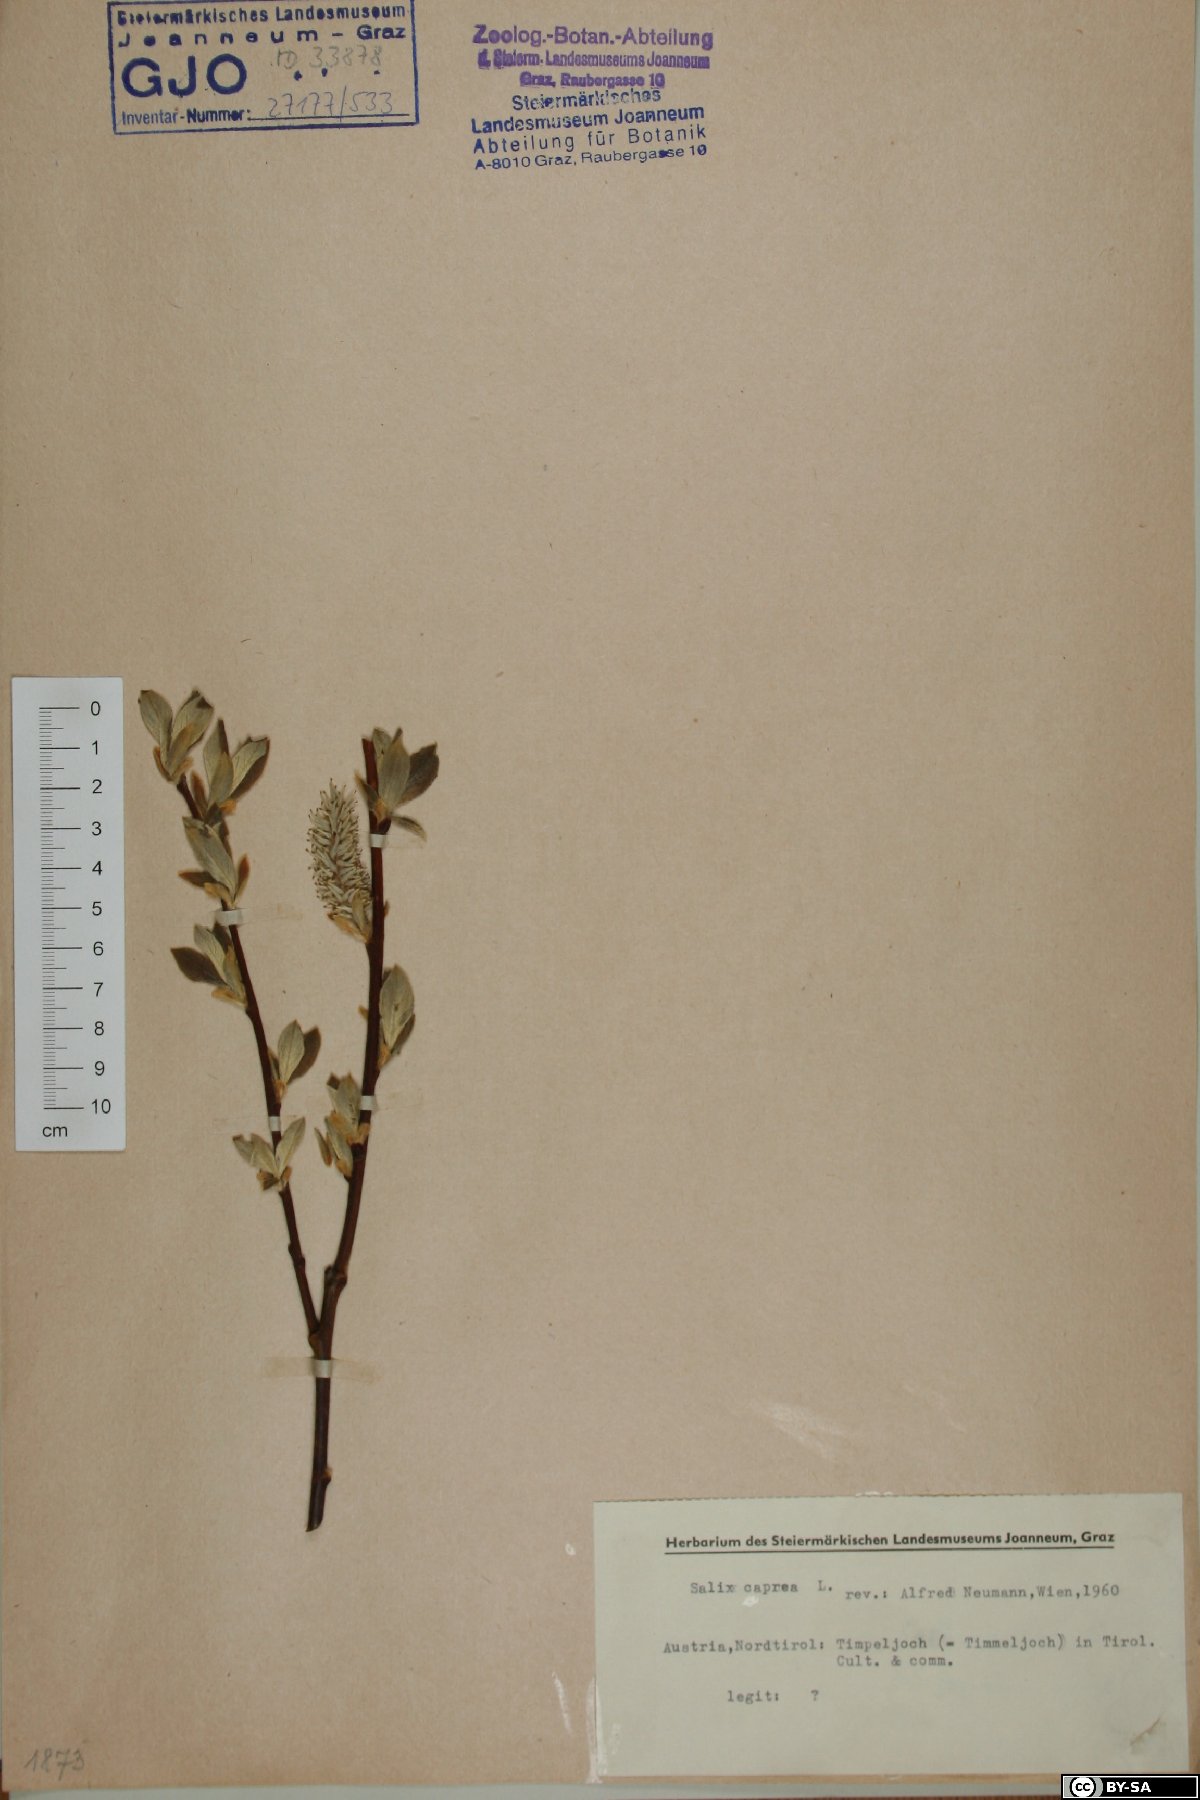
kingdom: Plantae
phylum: Tracheophyta
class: Magnoliopsida
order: Malpighiales
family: Salicaceae
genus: Salix
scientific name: Salix caprea
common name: Goat willow
